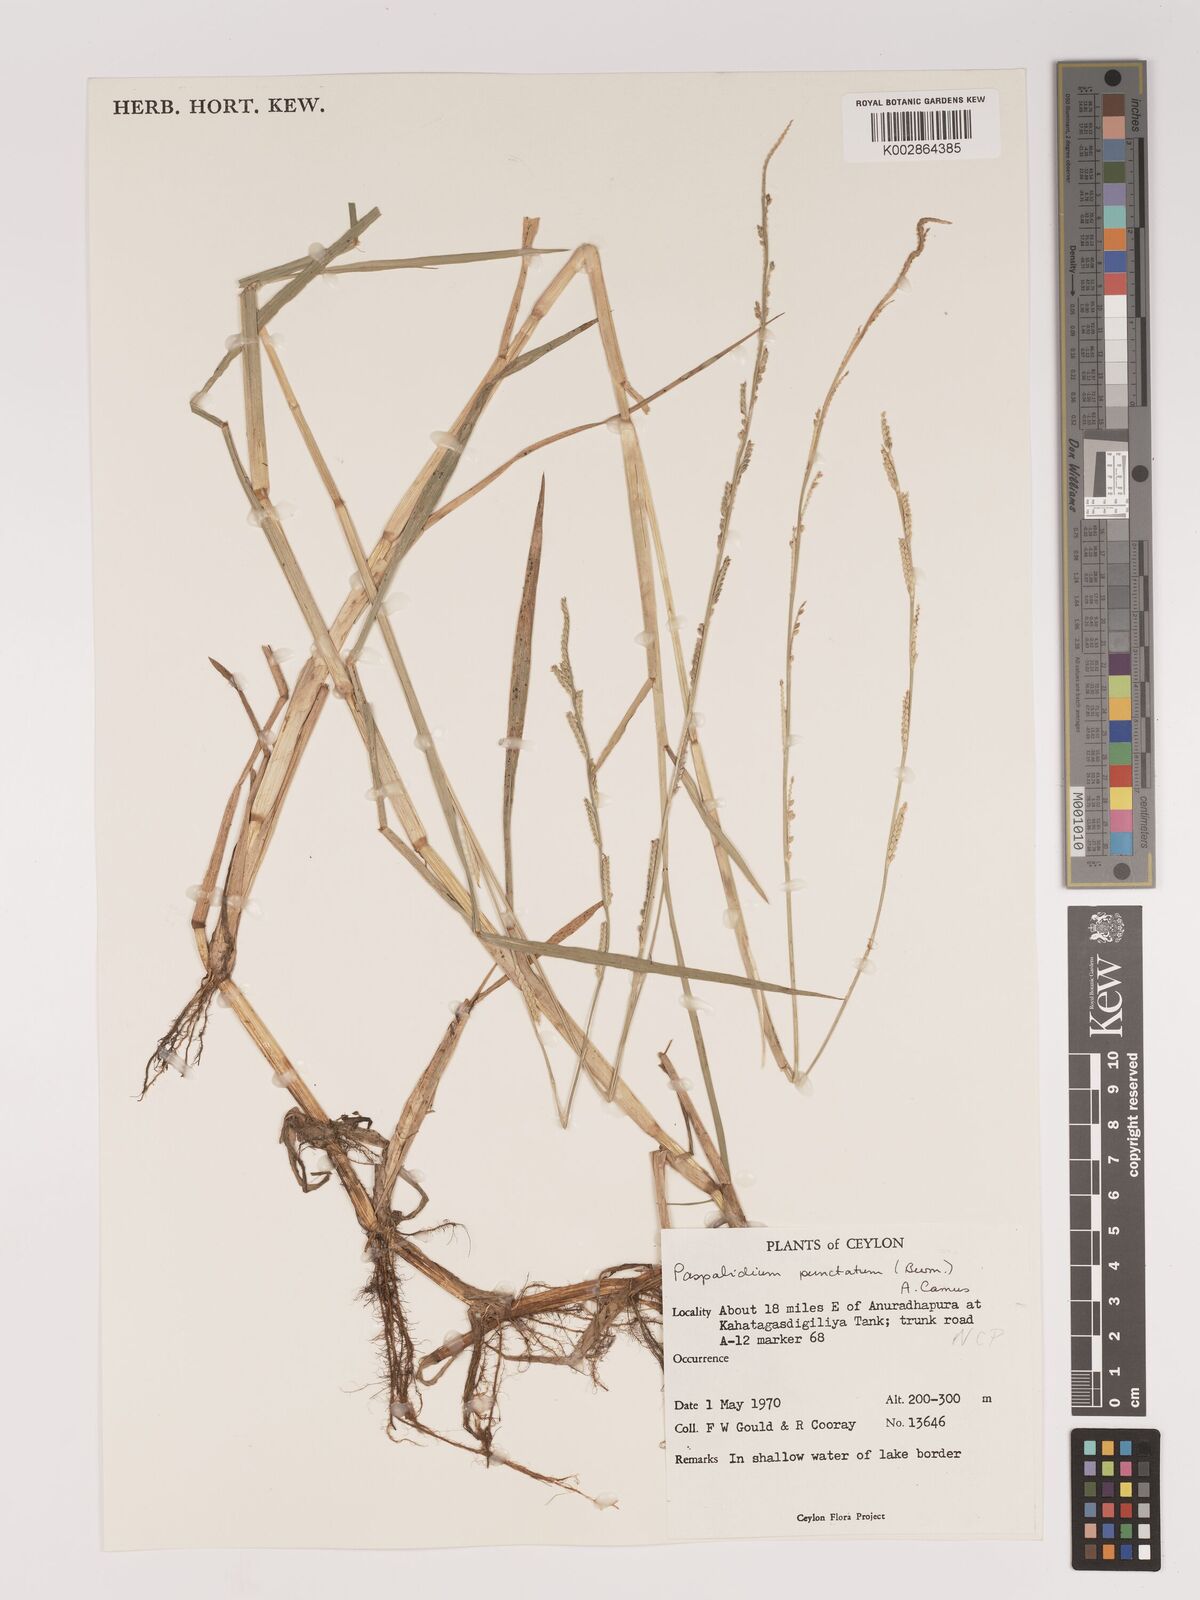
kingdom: Plantae
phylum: Tracheophyta
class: Liliopsida
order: Poales
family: Poaceae
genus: Setaria
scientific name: Setaria punctata
